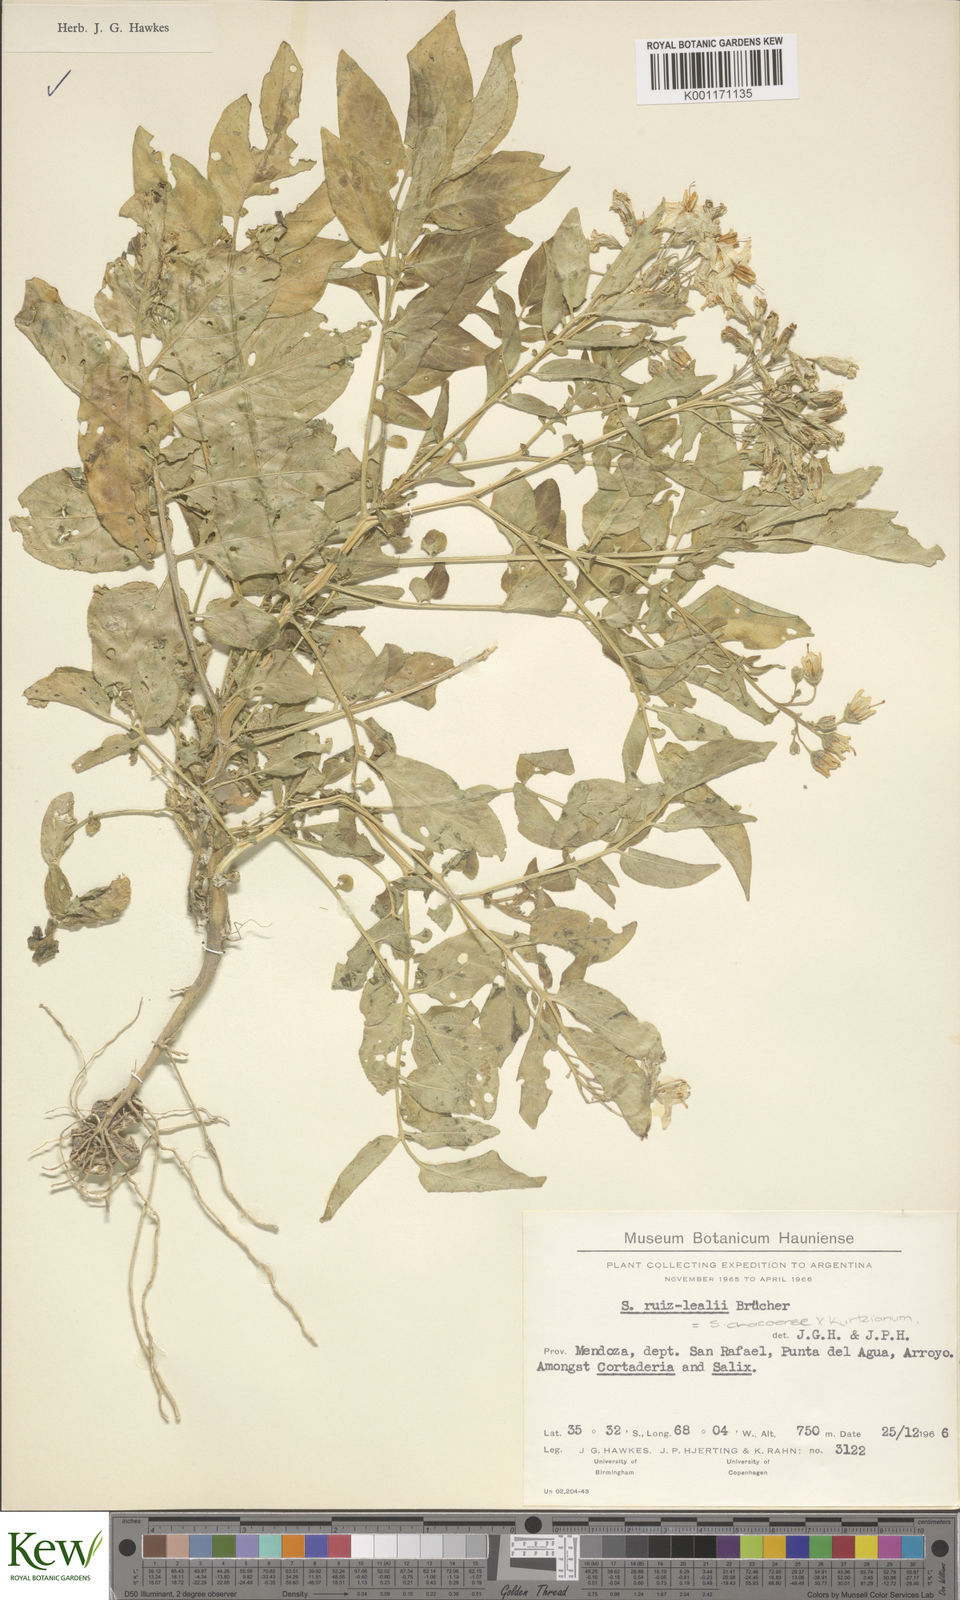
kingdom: Plantae
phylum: Tracheophyta
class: Magnoliopsida
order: Solanales
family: Solanaceae
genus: Solanum
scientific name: Solanum chacoense
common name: Chaco potato
